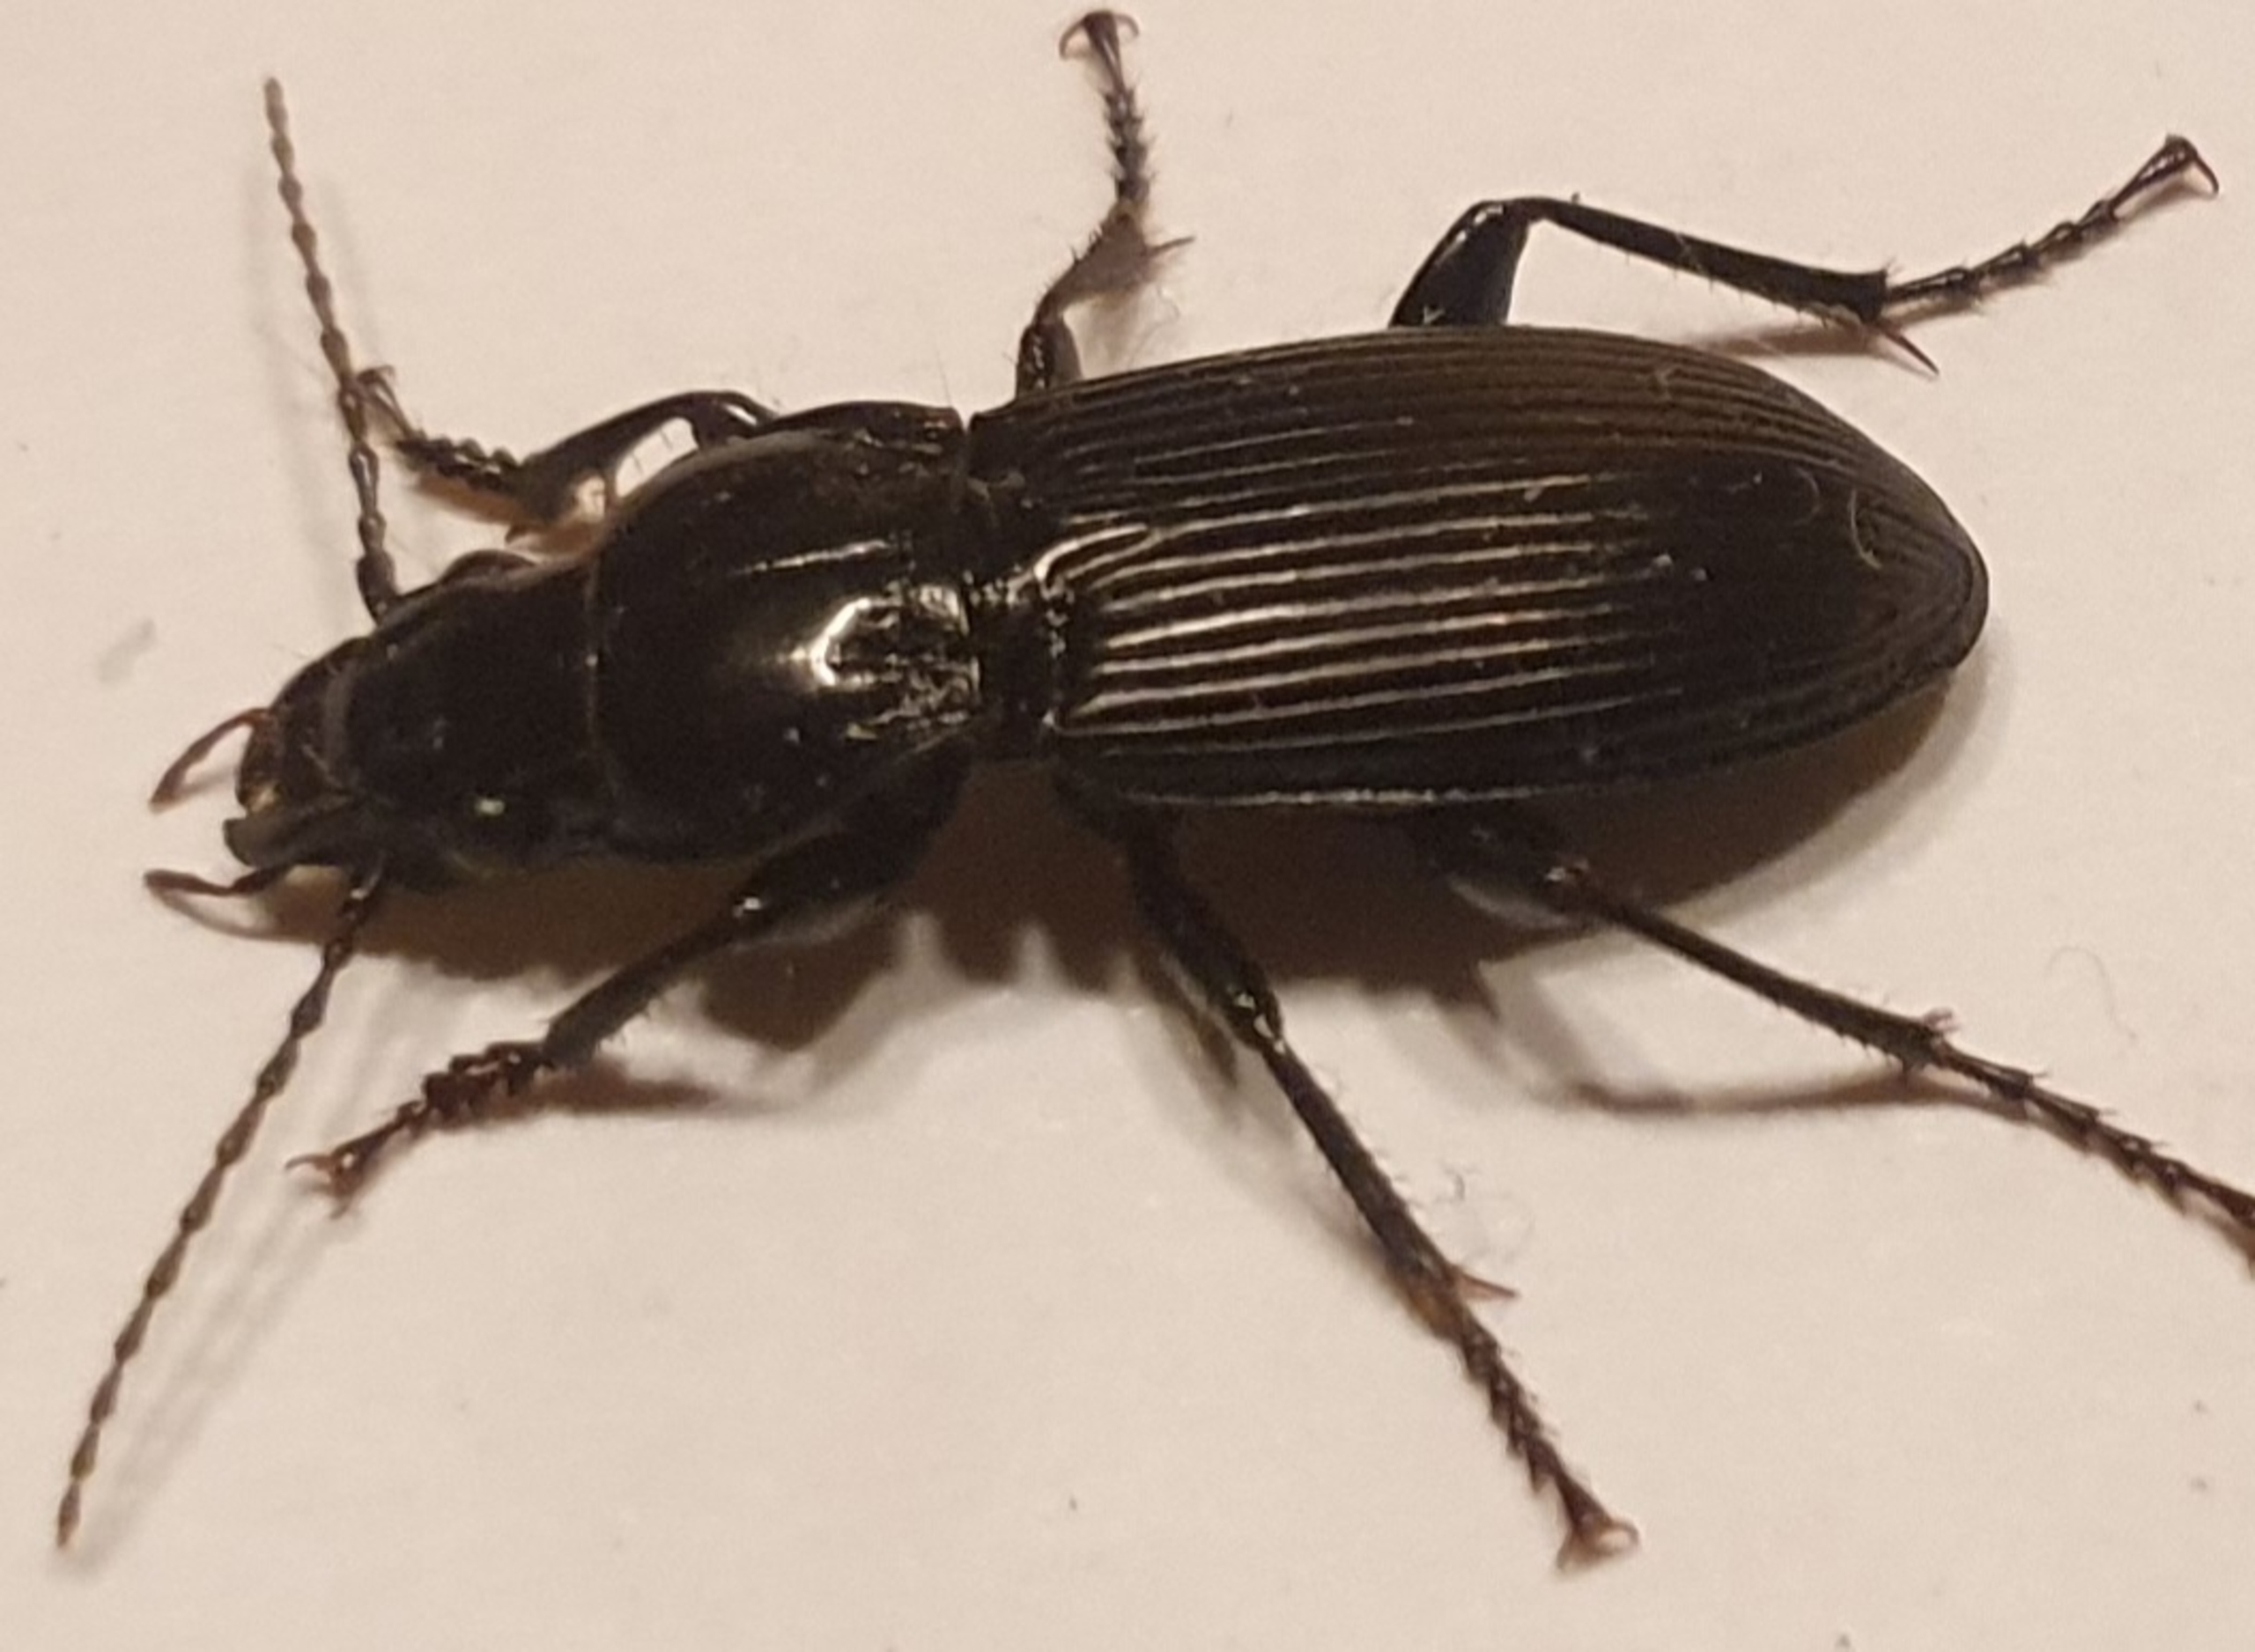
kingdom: Animalia
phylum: Arthropoda
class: Insecta
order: Coleoptera
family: Carabidae
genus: Pterostichus
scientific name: Pterostichus
